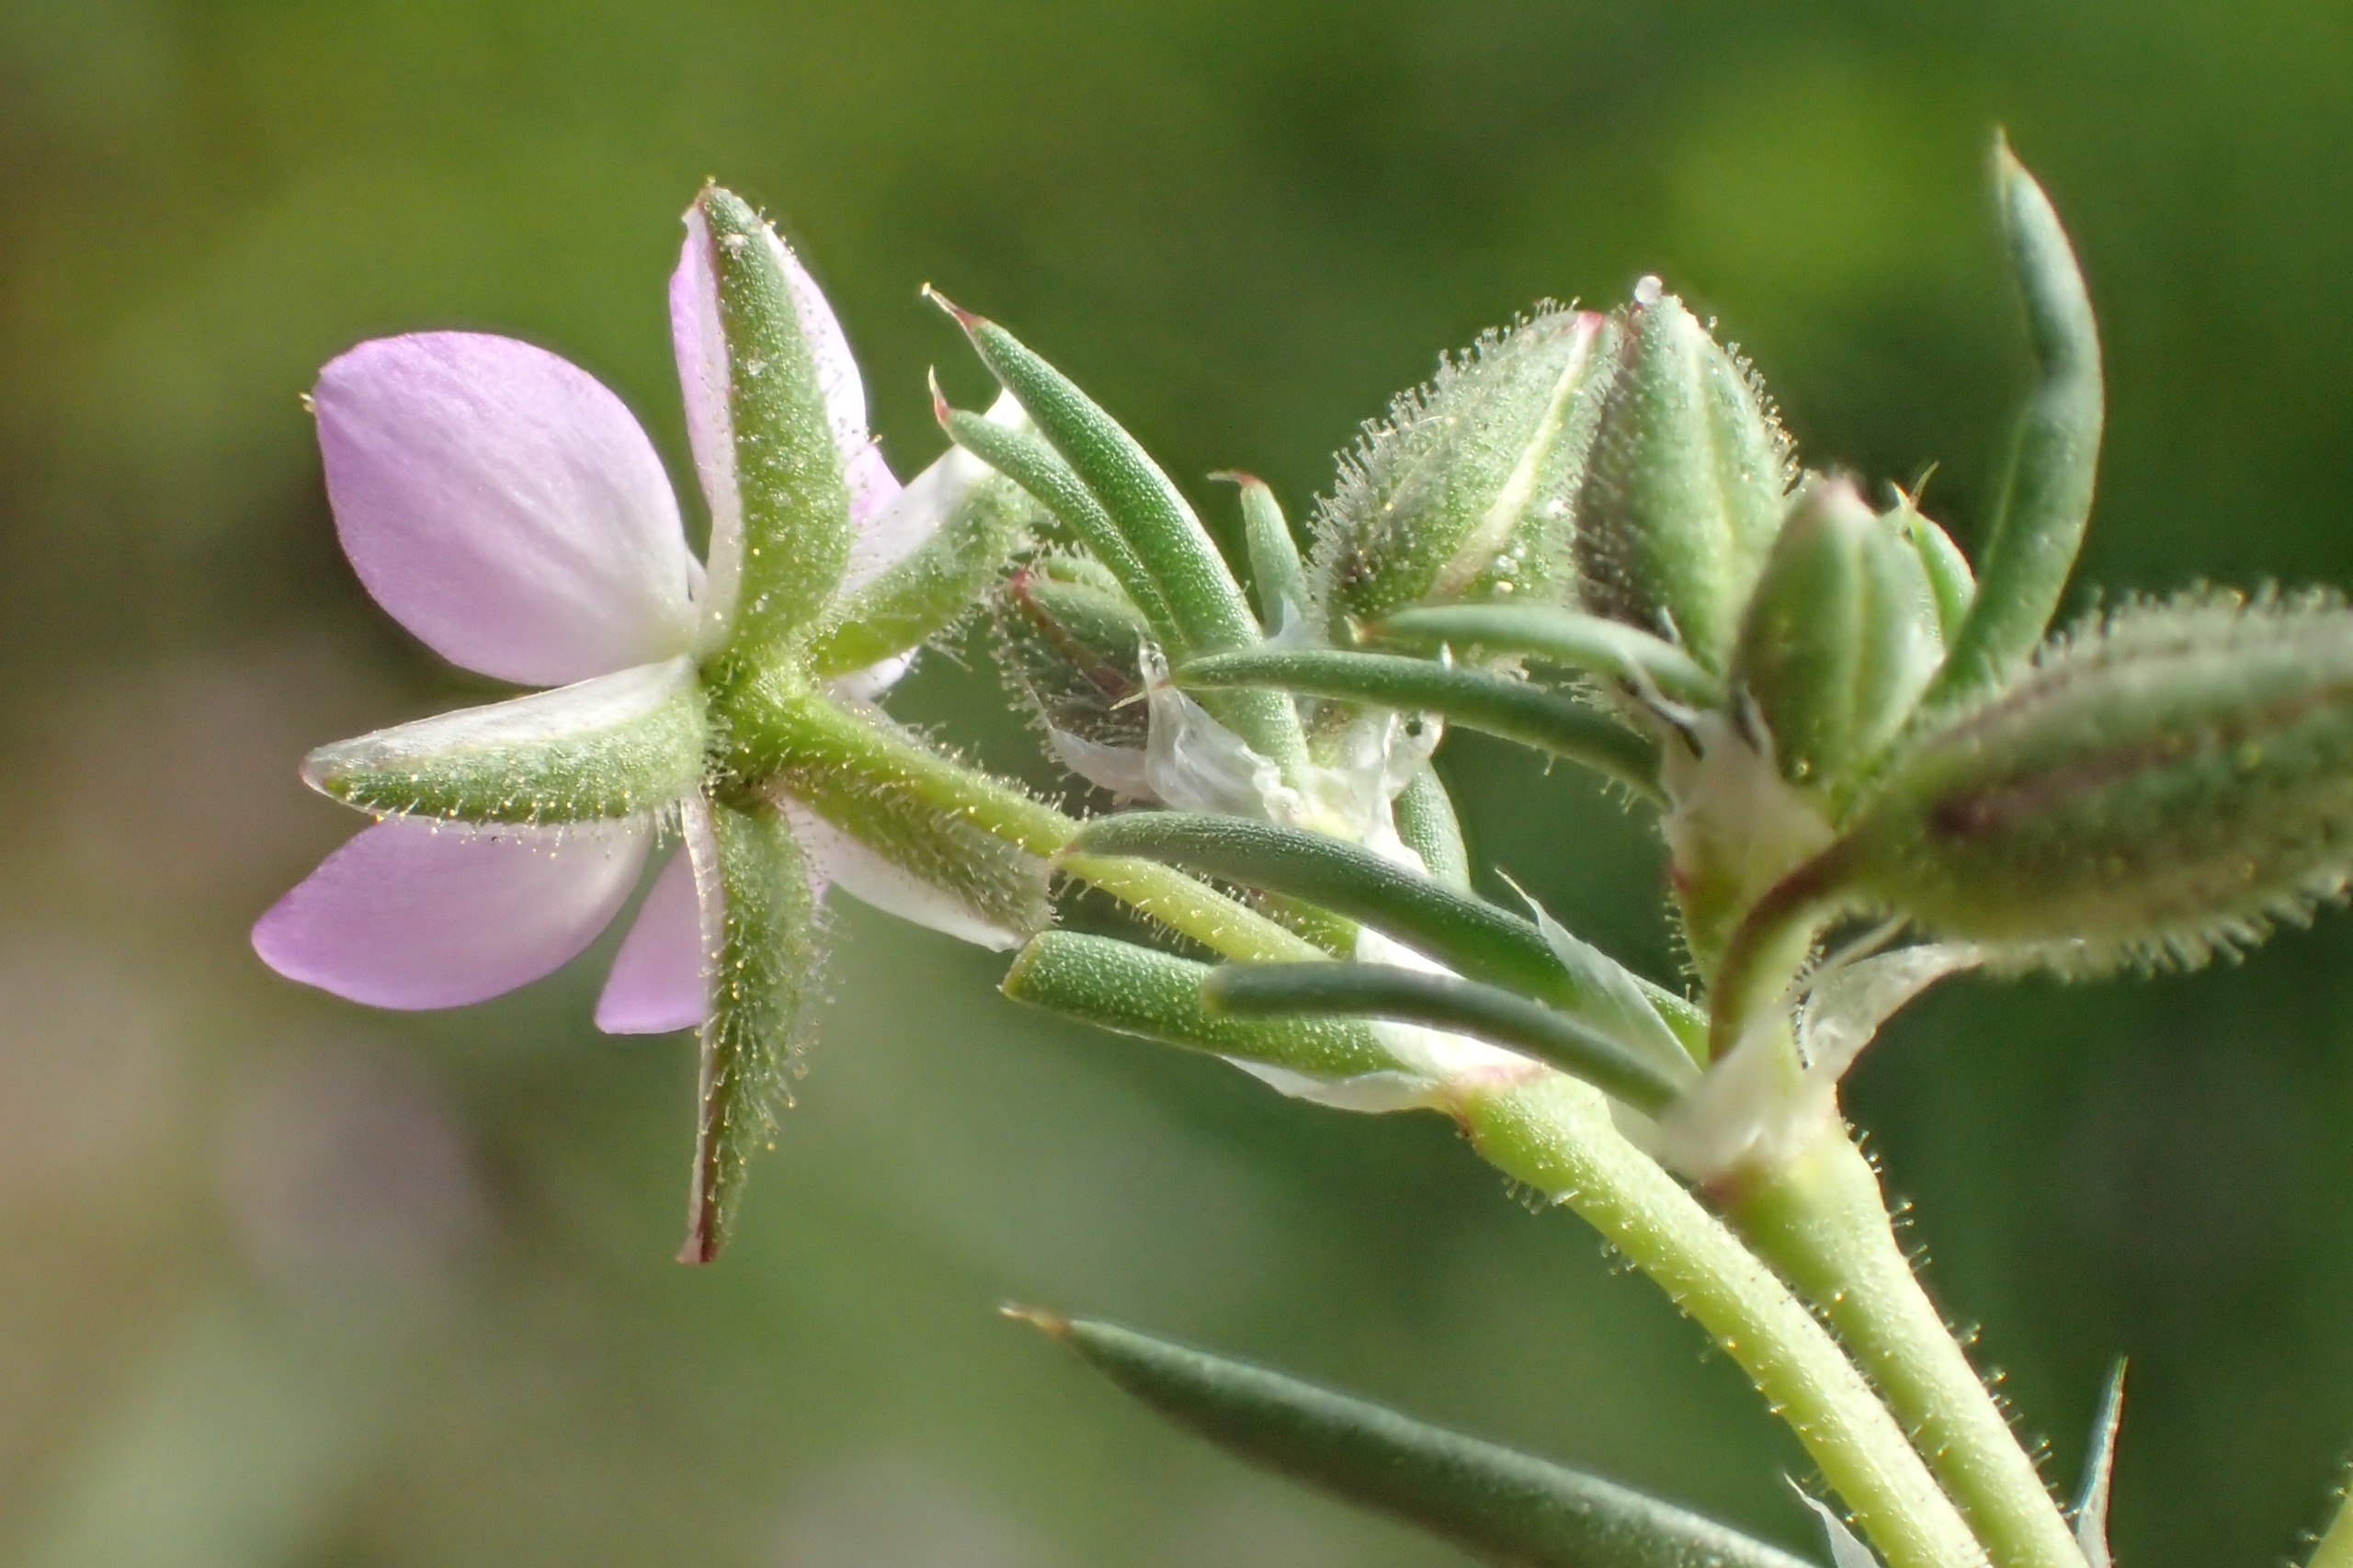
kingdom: Plantae
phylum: Tracheophyta
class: Magnoliopsida
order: Caryophyllales
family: Caryophyllaceae
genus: Spergularia
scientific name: Spergularia rubra
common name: Mark-hindeknæ
